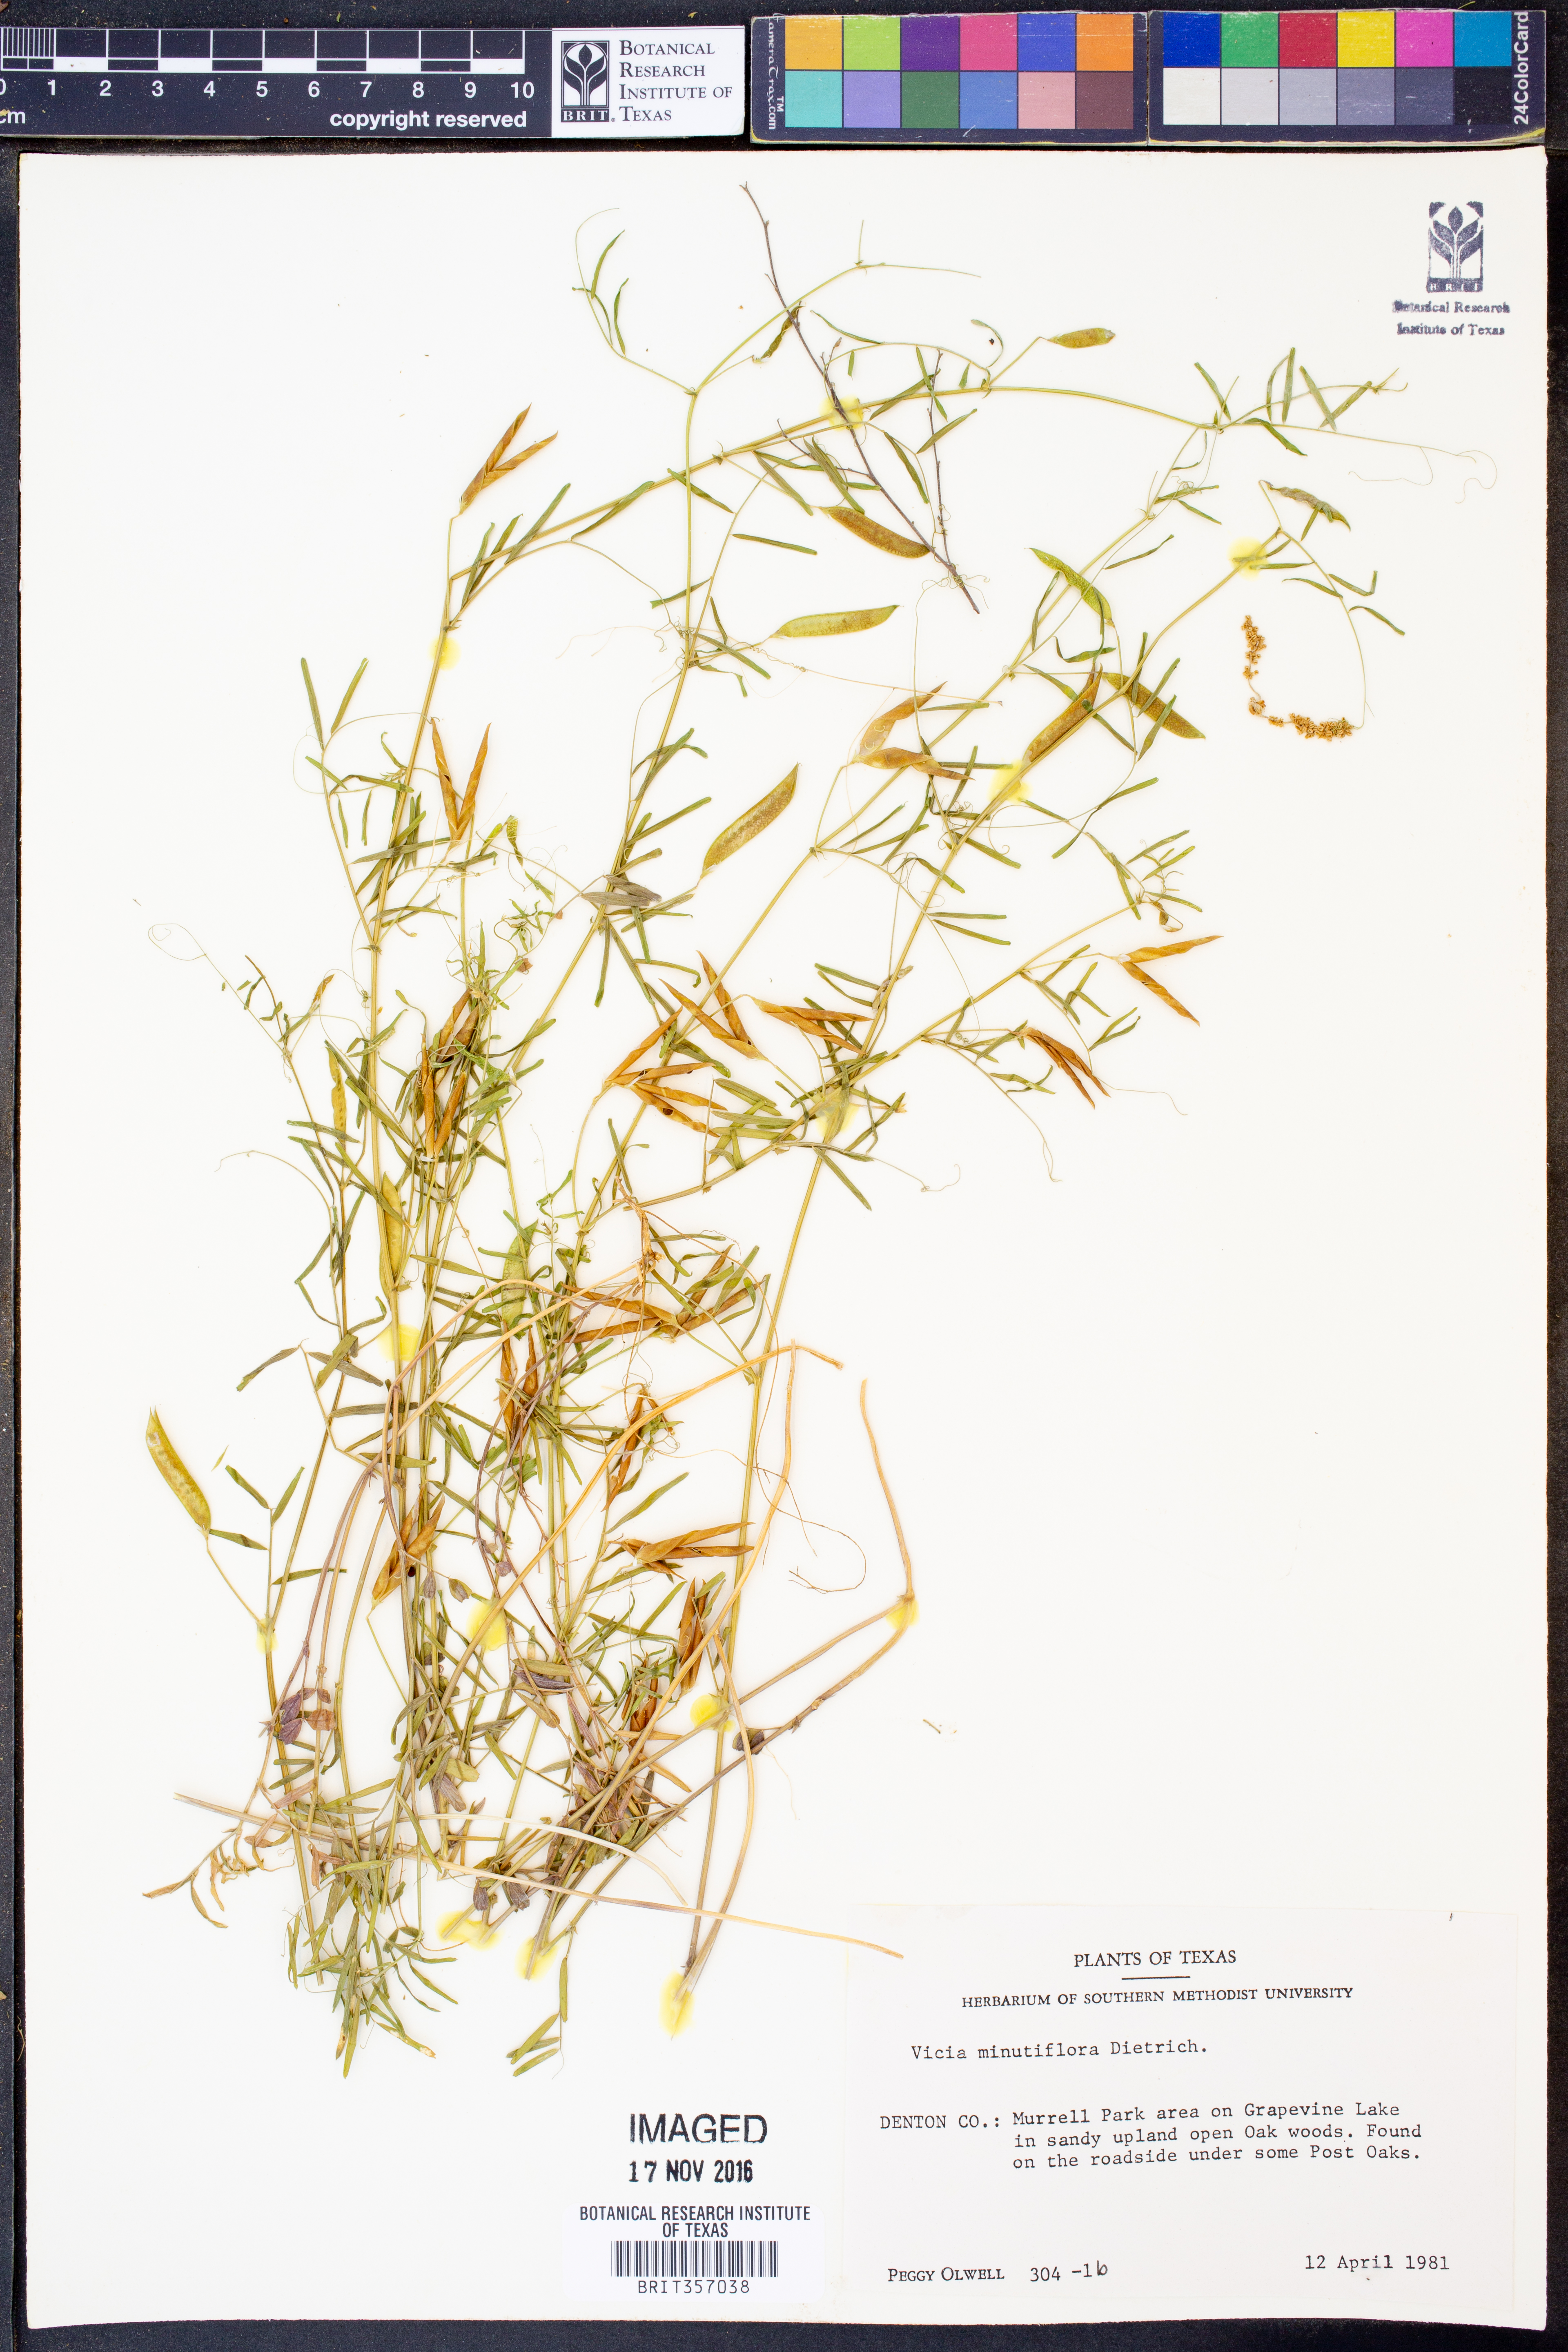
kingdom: Plantae
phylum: Tracheophyta
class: Magnoliopsida
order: Fabales
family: Fabaceae
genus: Vicia
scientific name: Vicia minutiflora
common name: Pygmy-flower vetch
